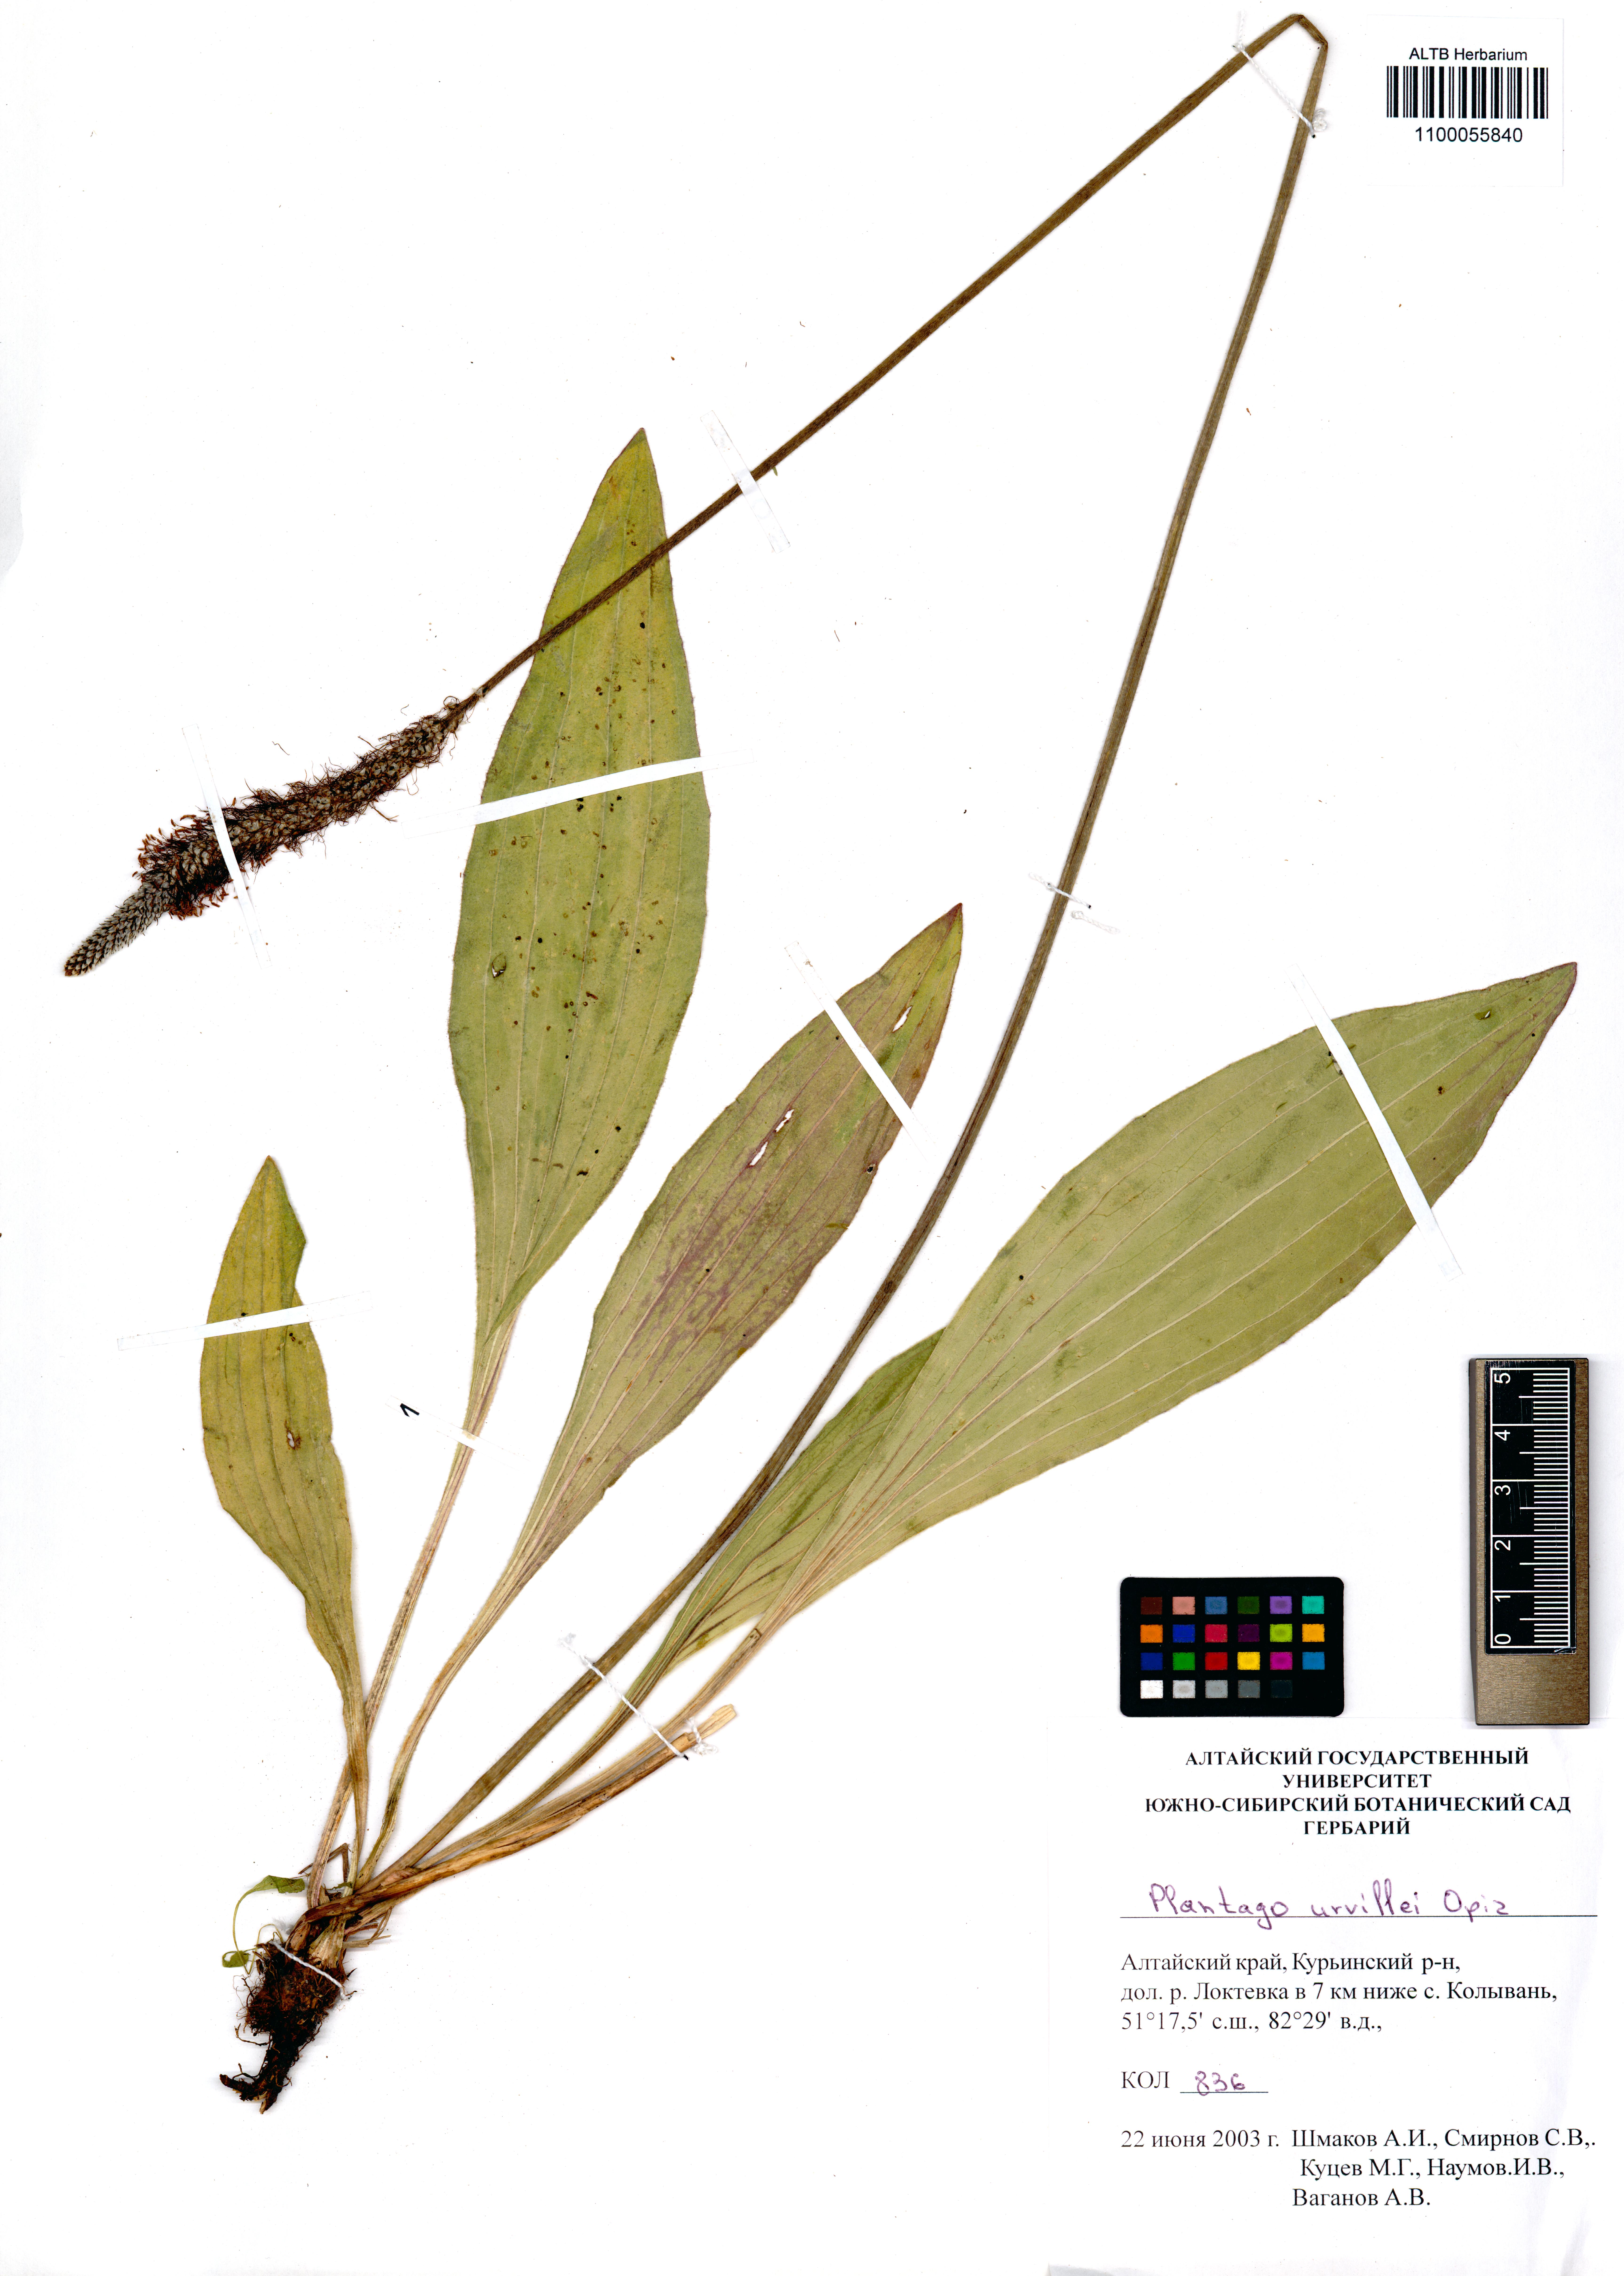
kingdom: Plantae
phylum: Tracheophyta
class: Magnoliopsida
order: Lamiales
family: Plantaginaceae
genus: Plantago
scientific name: Plantago urvillei
